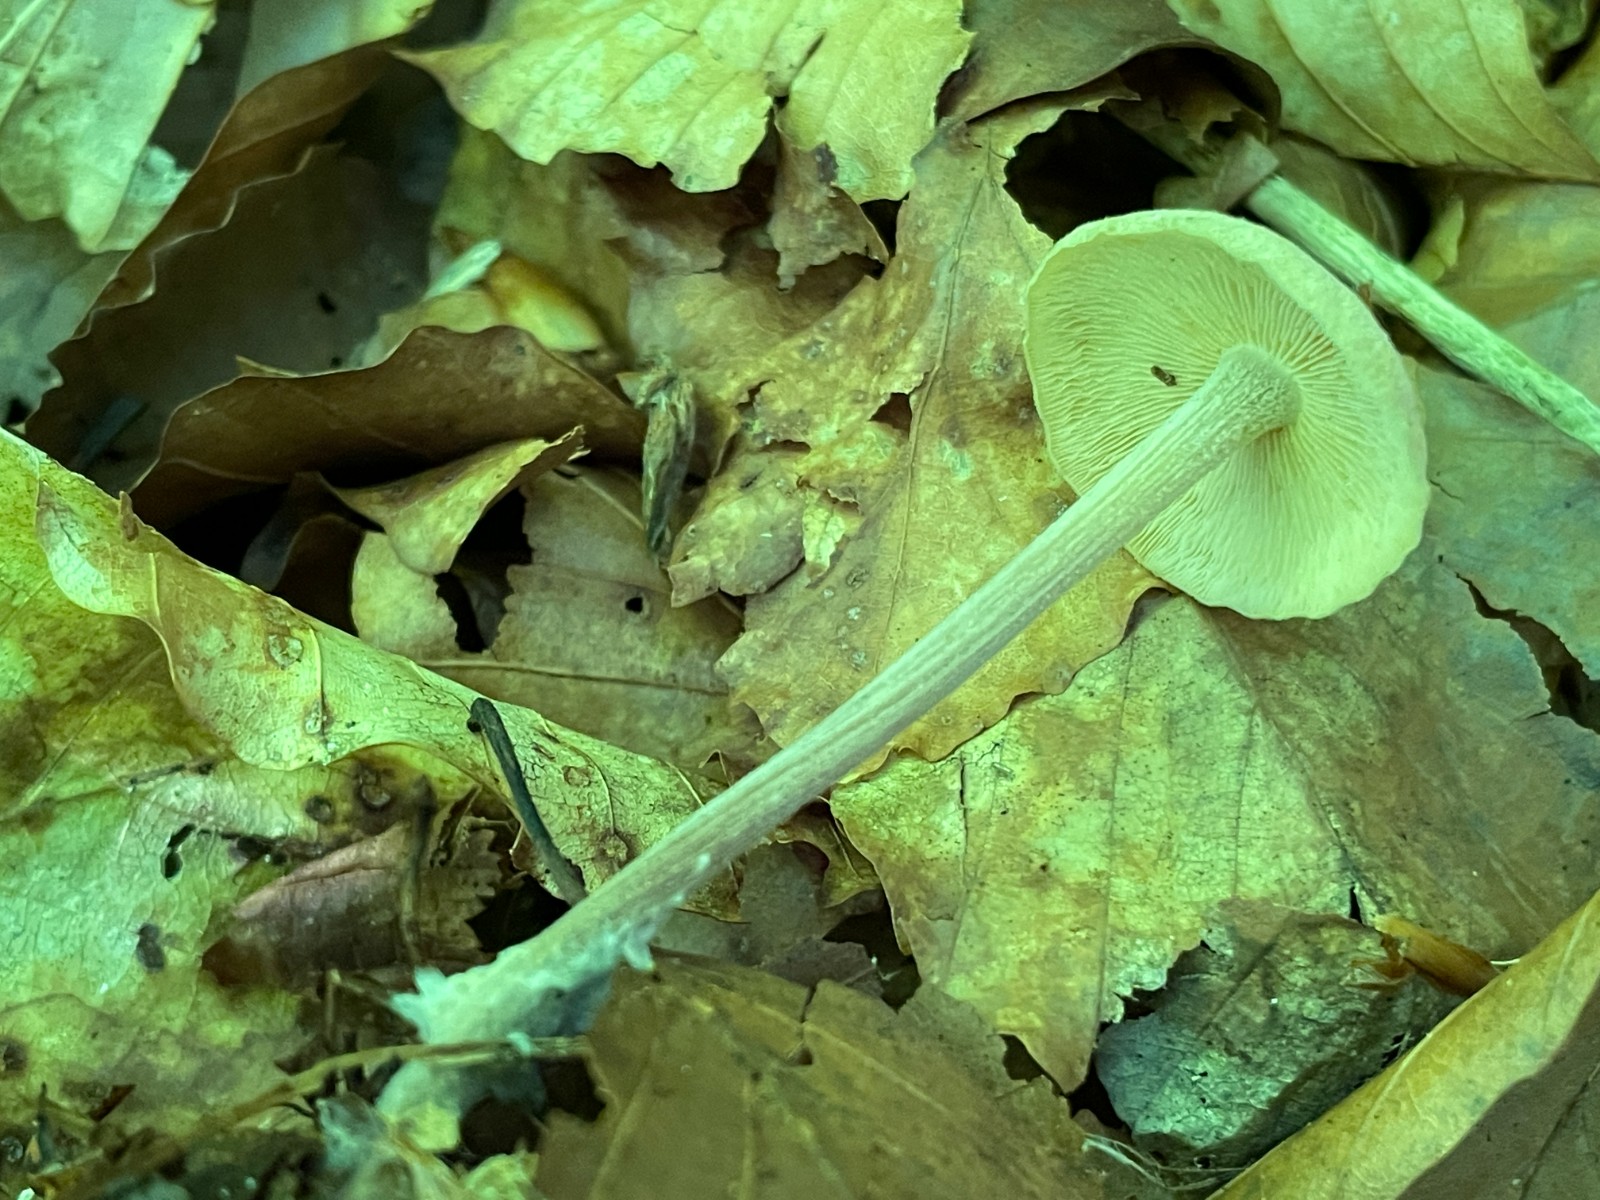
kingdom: Fungi
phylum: Basidiomycota
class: Agaricomycetes
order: Agaricales
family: Omphalotaceae
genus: Collybiopsis
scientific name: Collybiopsis confluens
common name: knippe-fladhat
